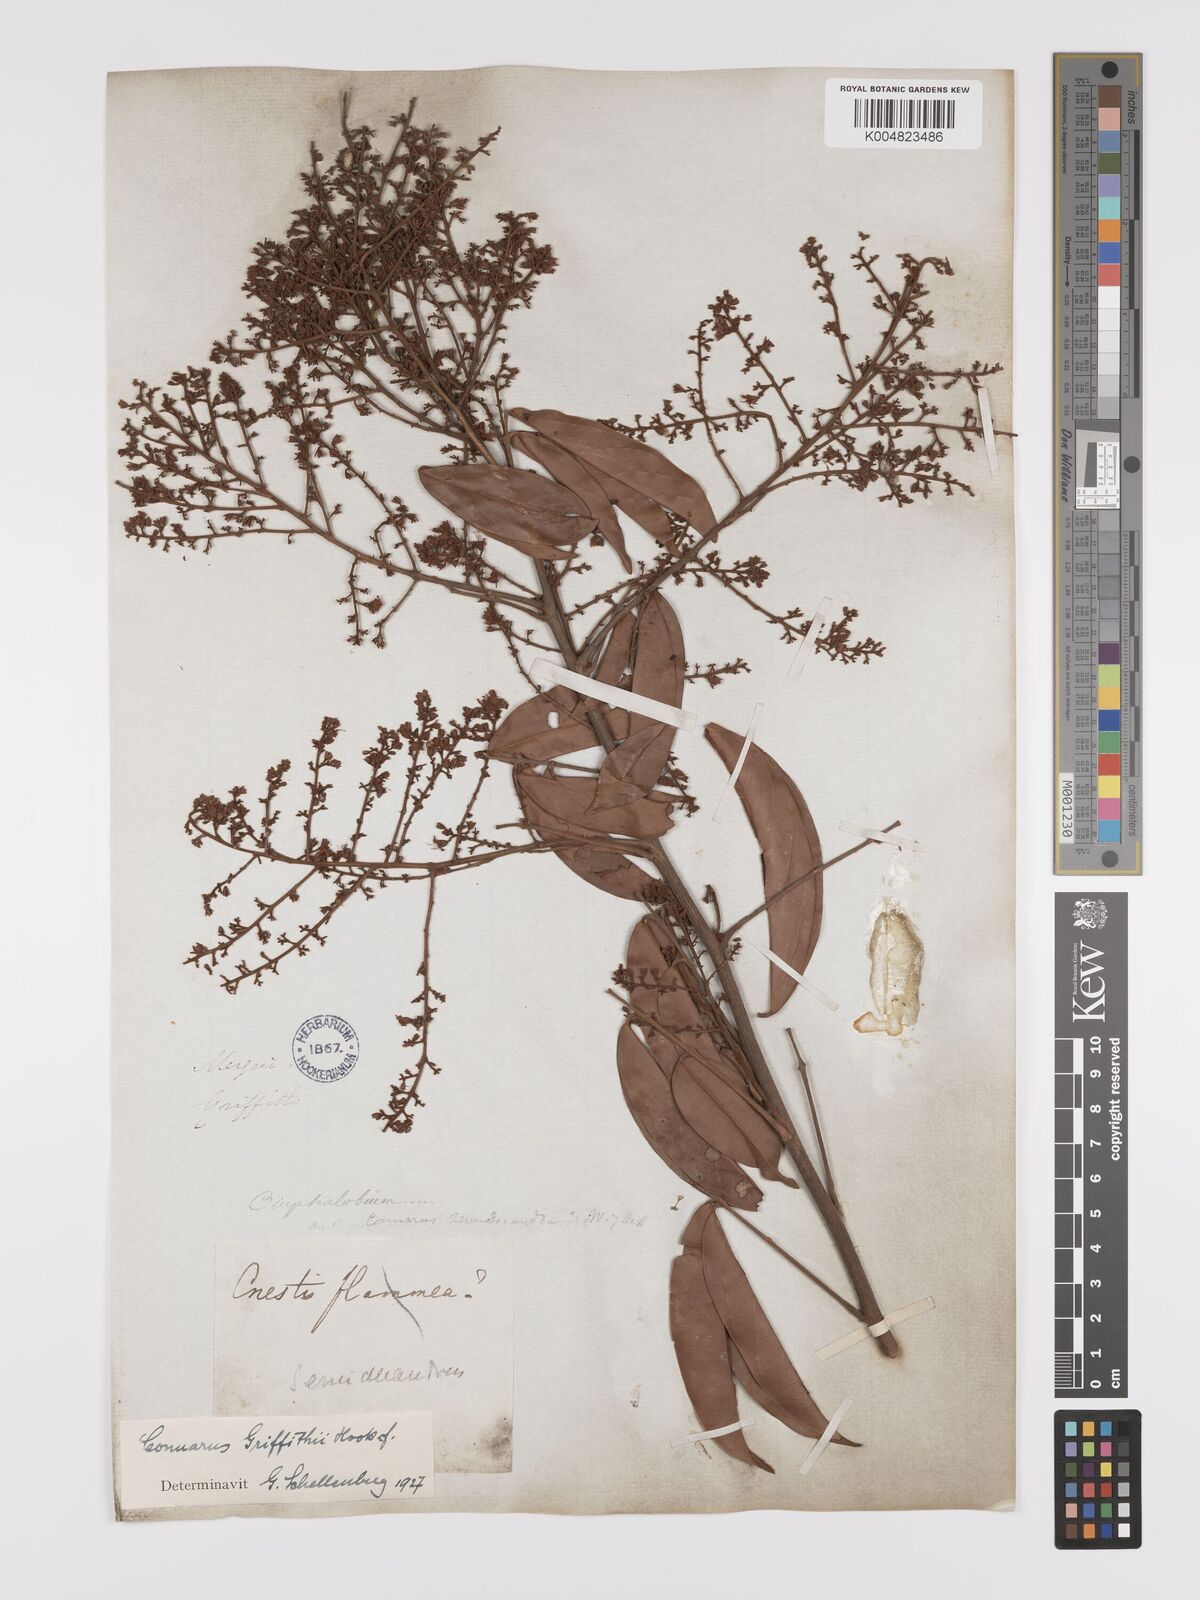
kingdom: Plantae
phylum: Tracheophyta
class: Magnoliopsida
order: Oxalidales
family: Connaraceae
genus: Connarus
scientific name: Connarus semidecandrus
